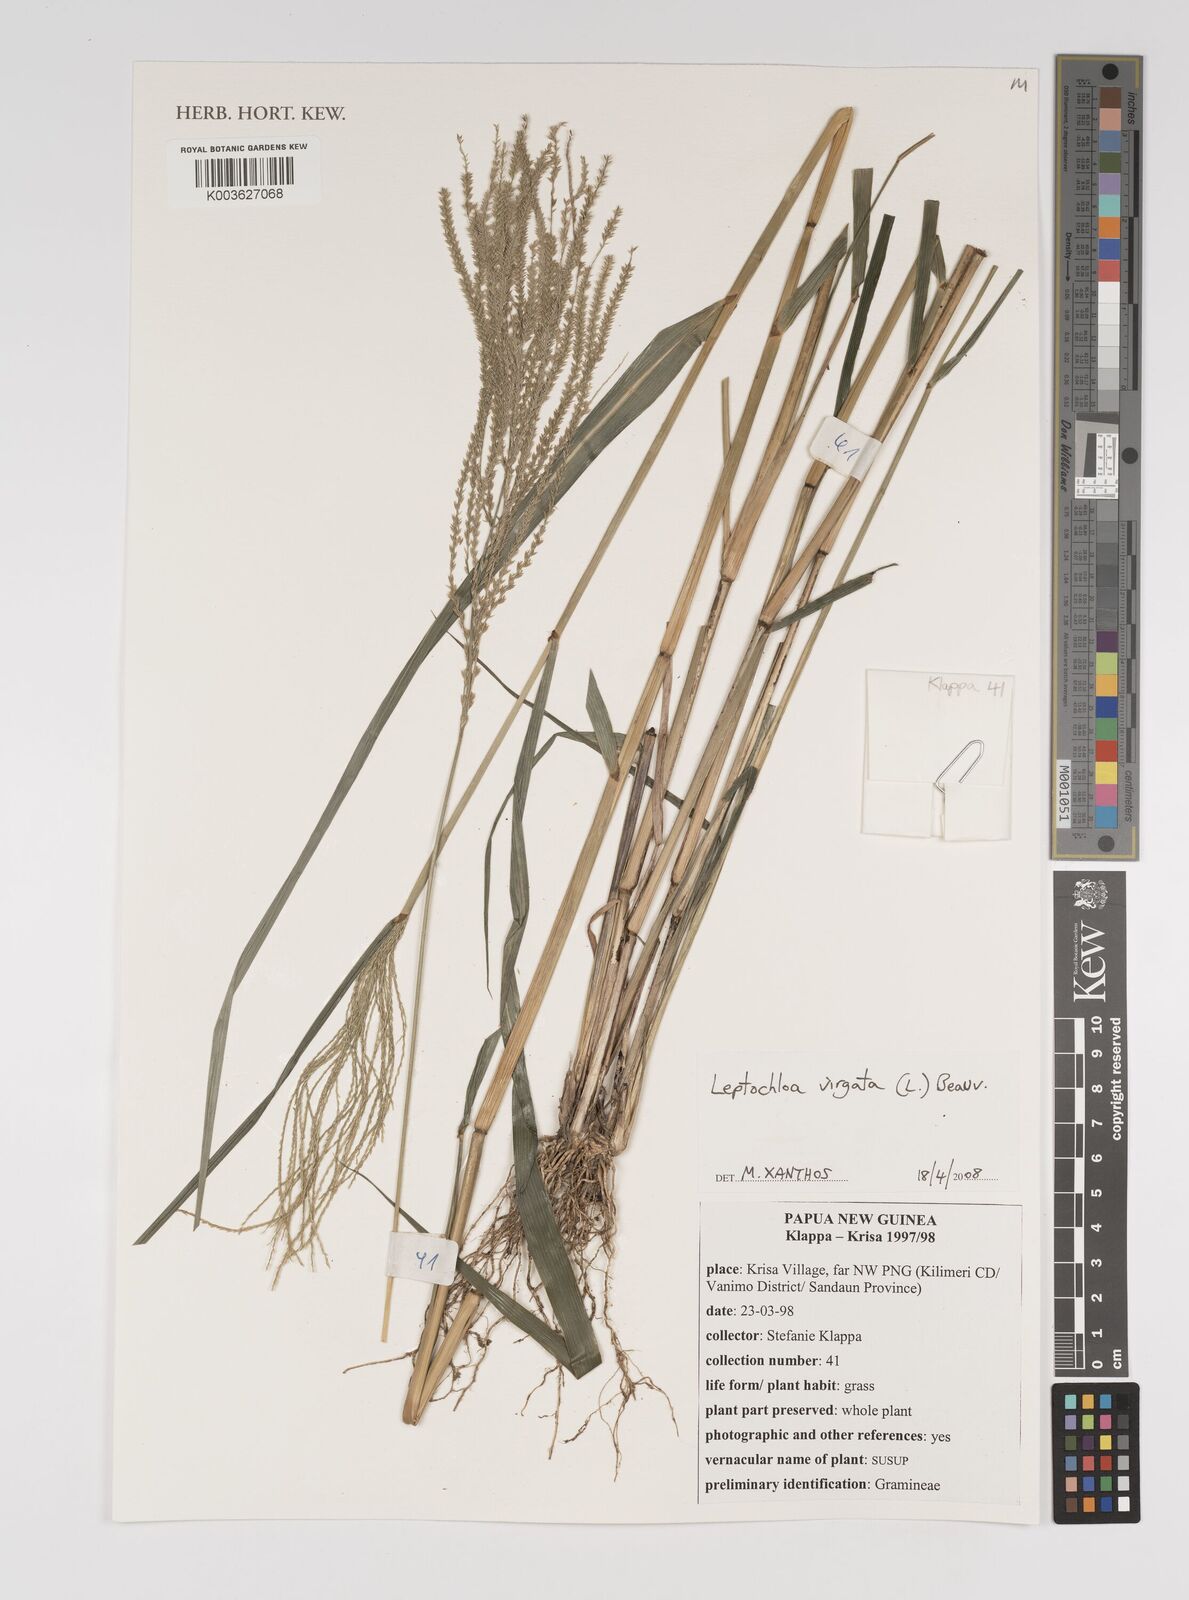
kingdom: Plantae
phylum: Tracheophyta
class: Liliopsida
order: Poales
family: Poaceae
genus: Leptochloa
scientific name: Leptochloa
